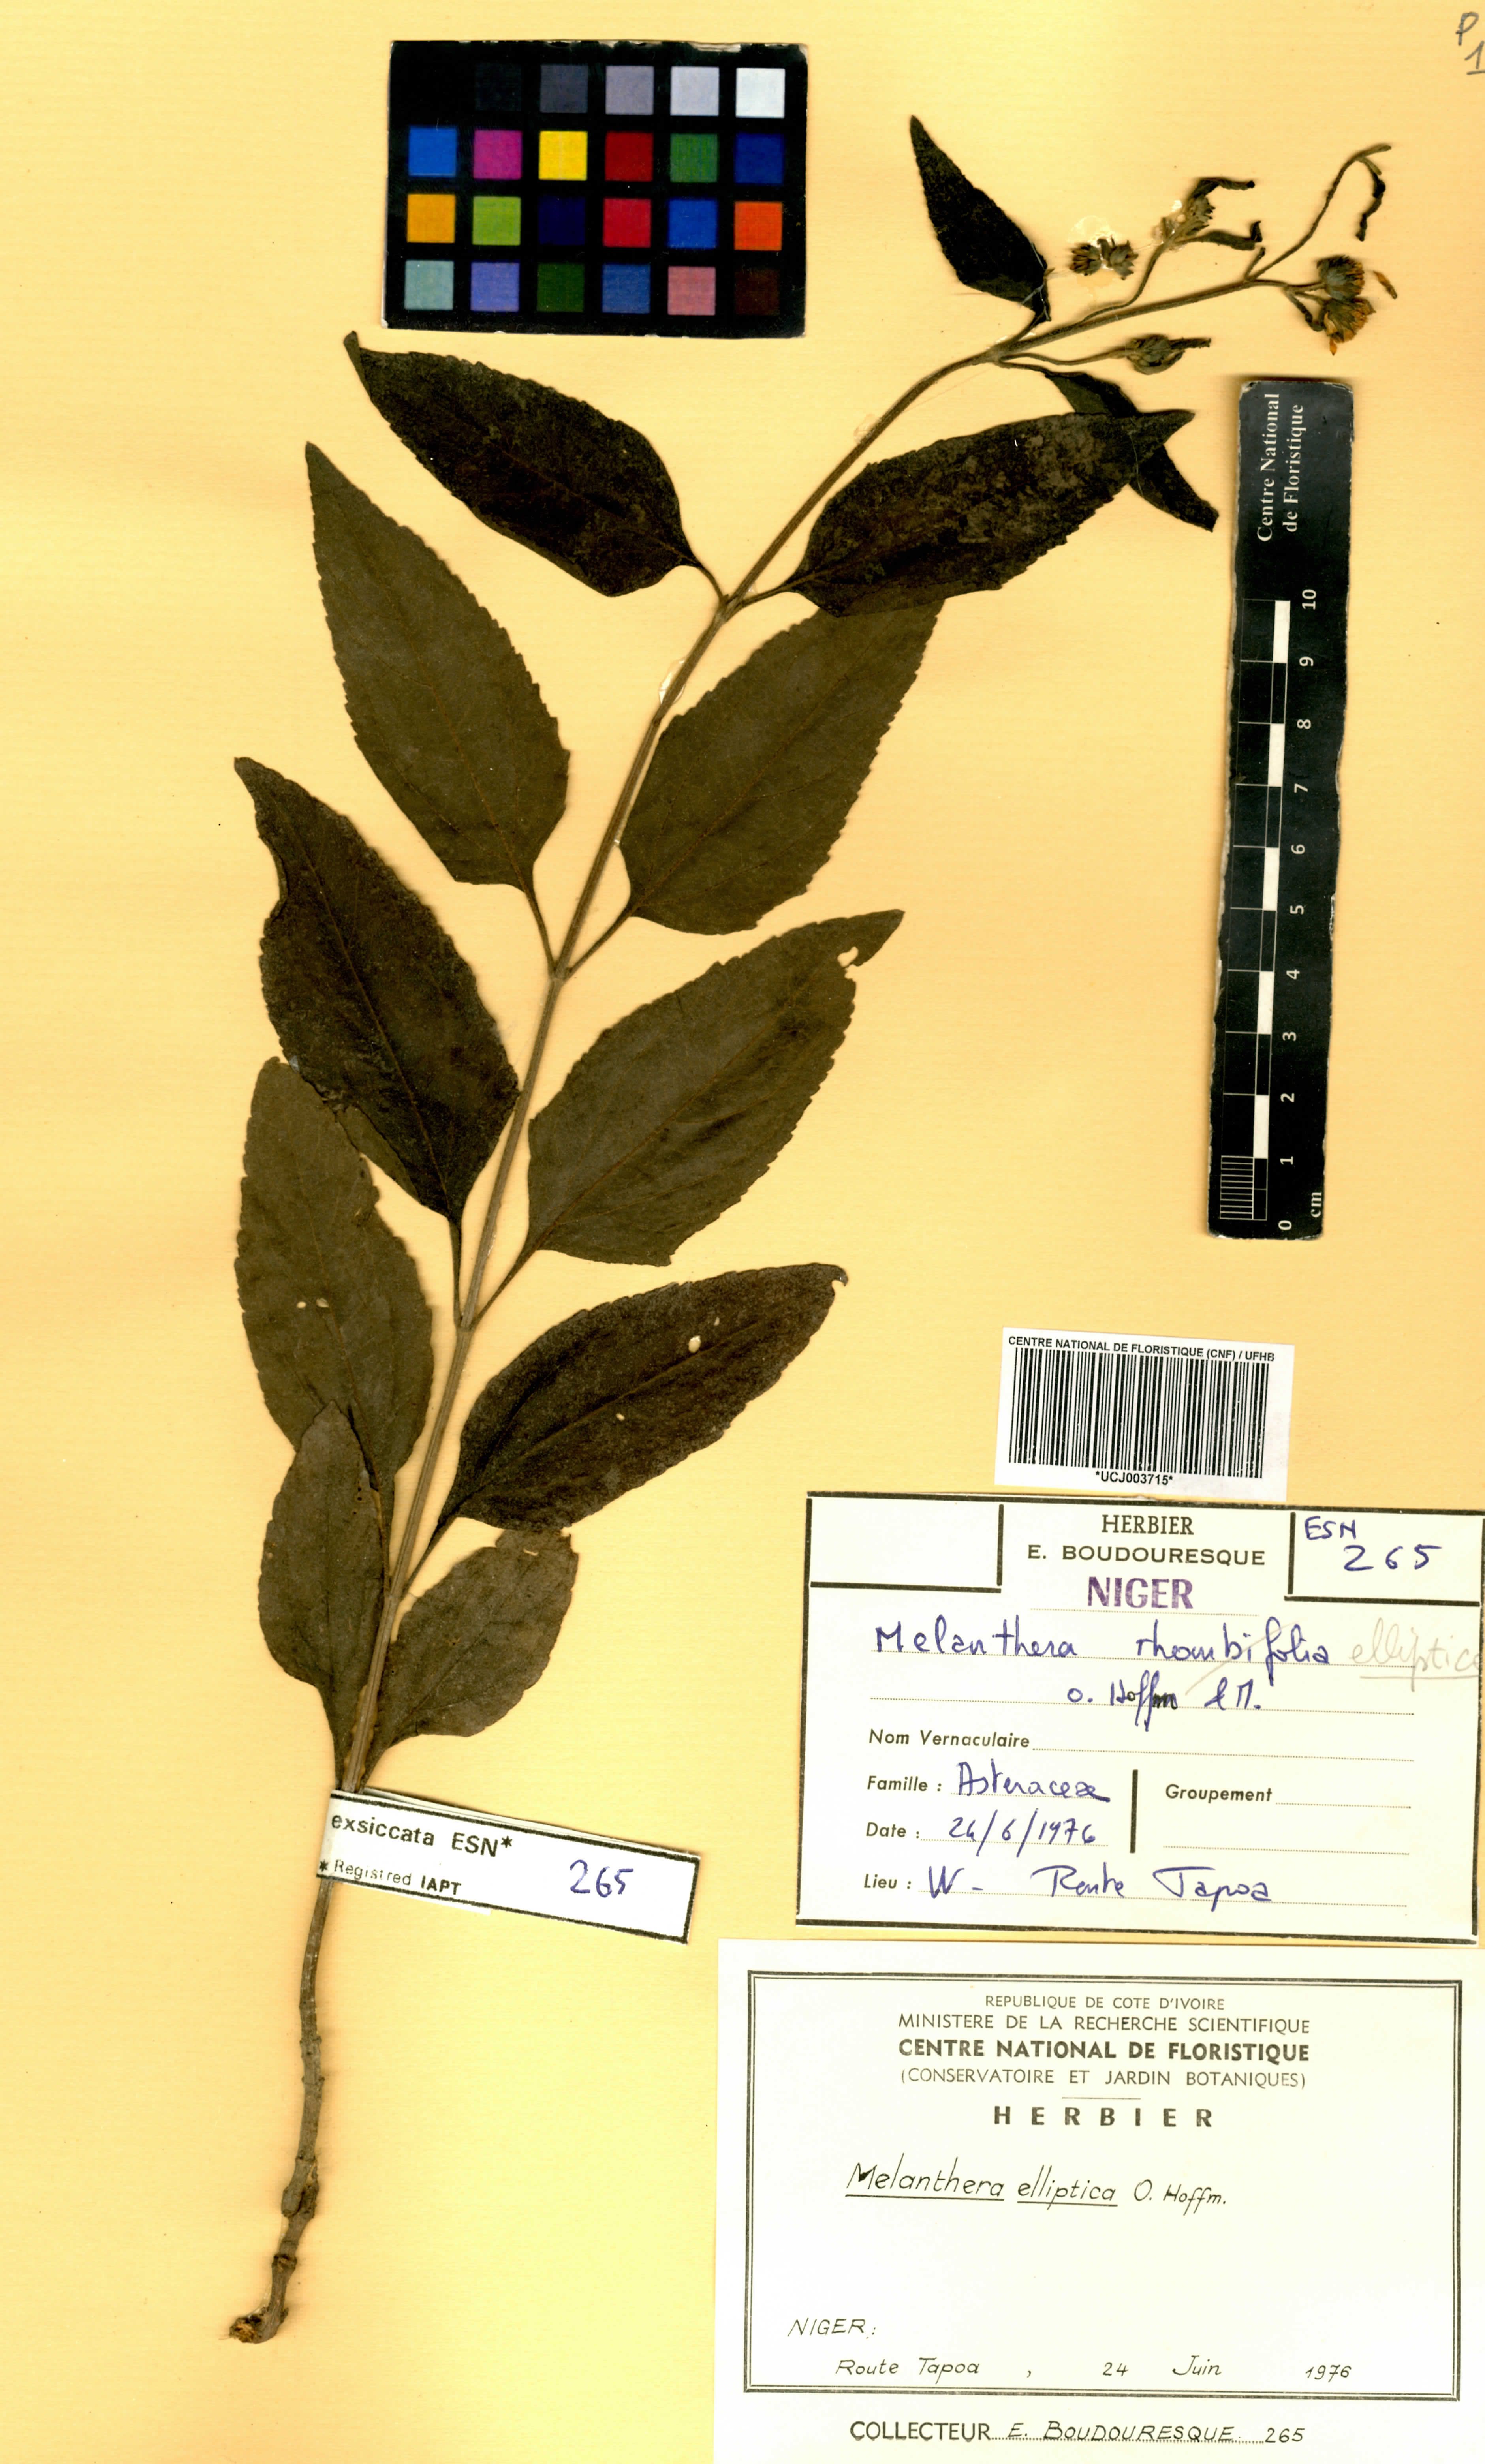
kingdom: Plantae
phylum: Tracheophyta
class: Magnoliopsida
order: Asterales
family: Asteraceae
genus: Lipotriche
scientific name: Lipotriche elliptica
